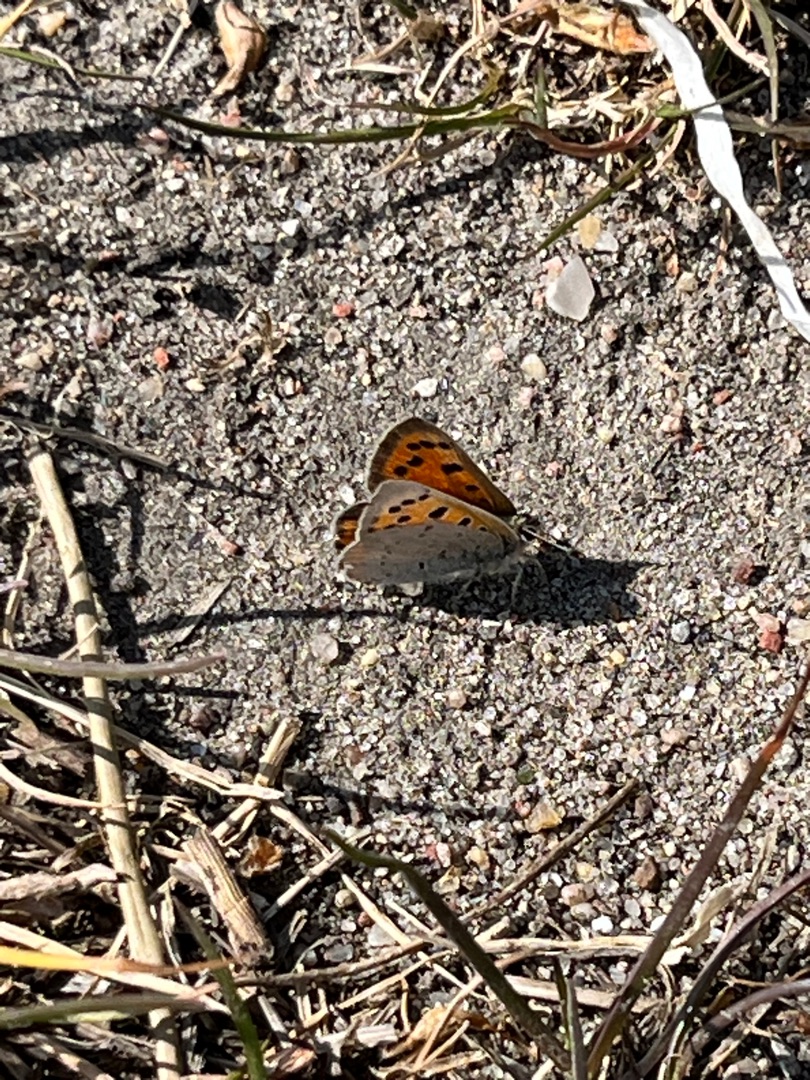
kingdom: Animalia
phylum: Arthropoda
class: Insecta
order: Lepidoptera
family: Lycaenidae
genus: Lycaena
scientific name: Lycaena phlaeas
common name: Lille ildfugl
